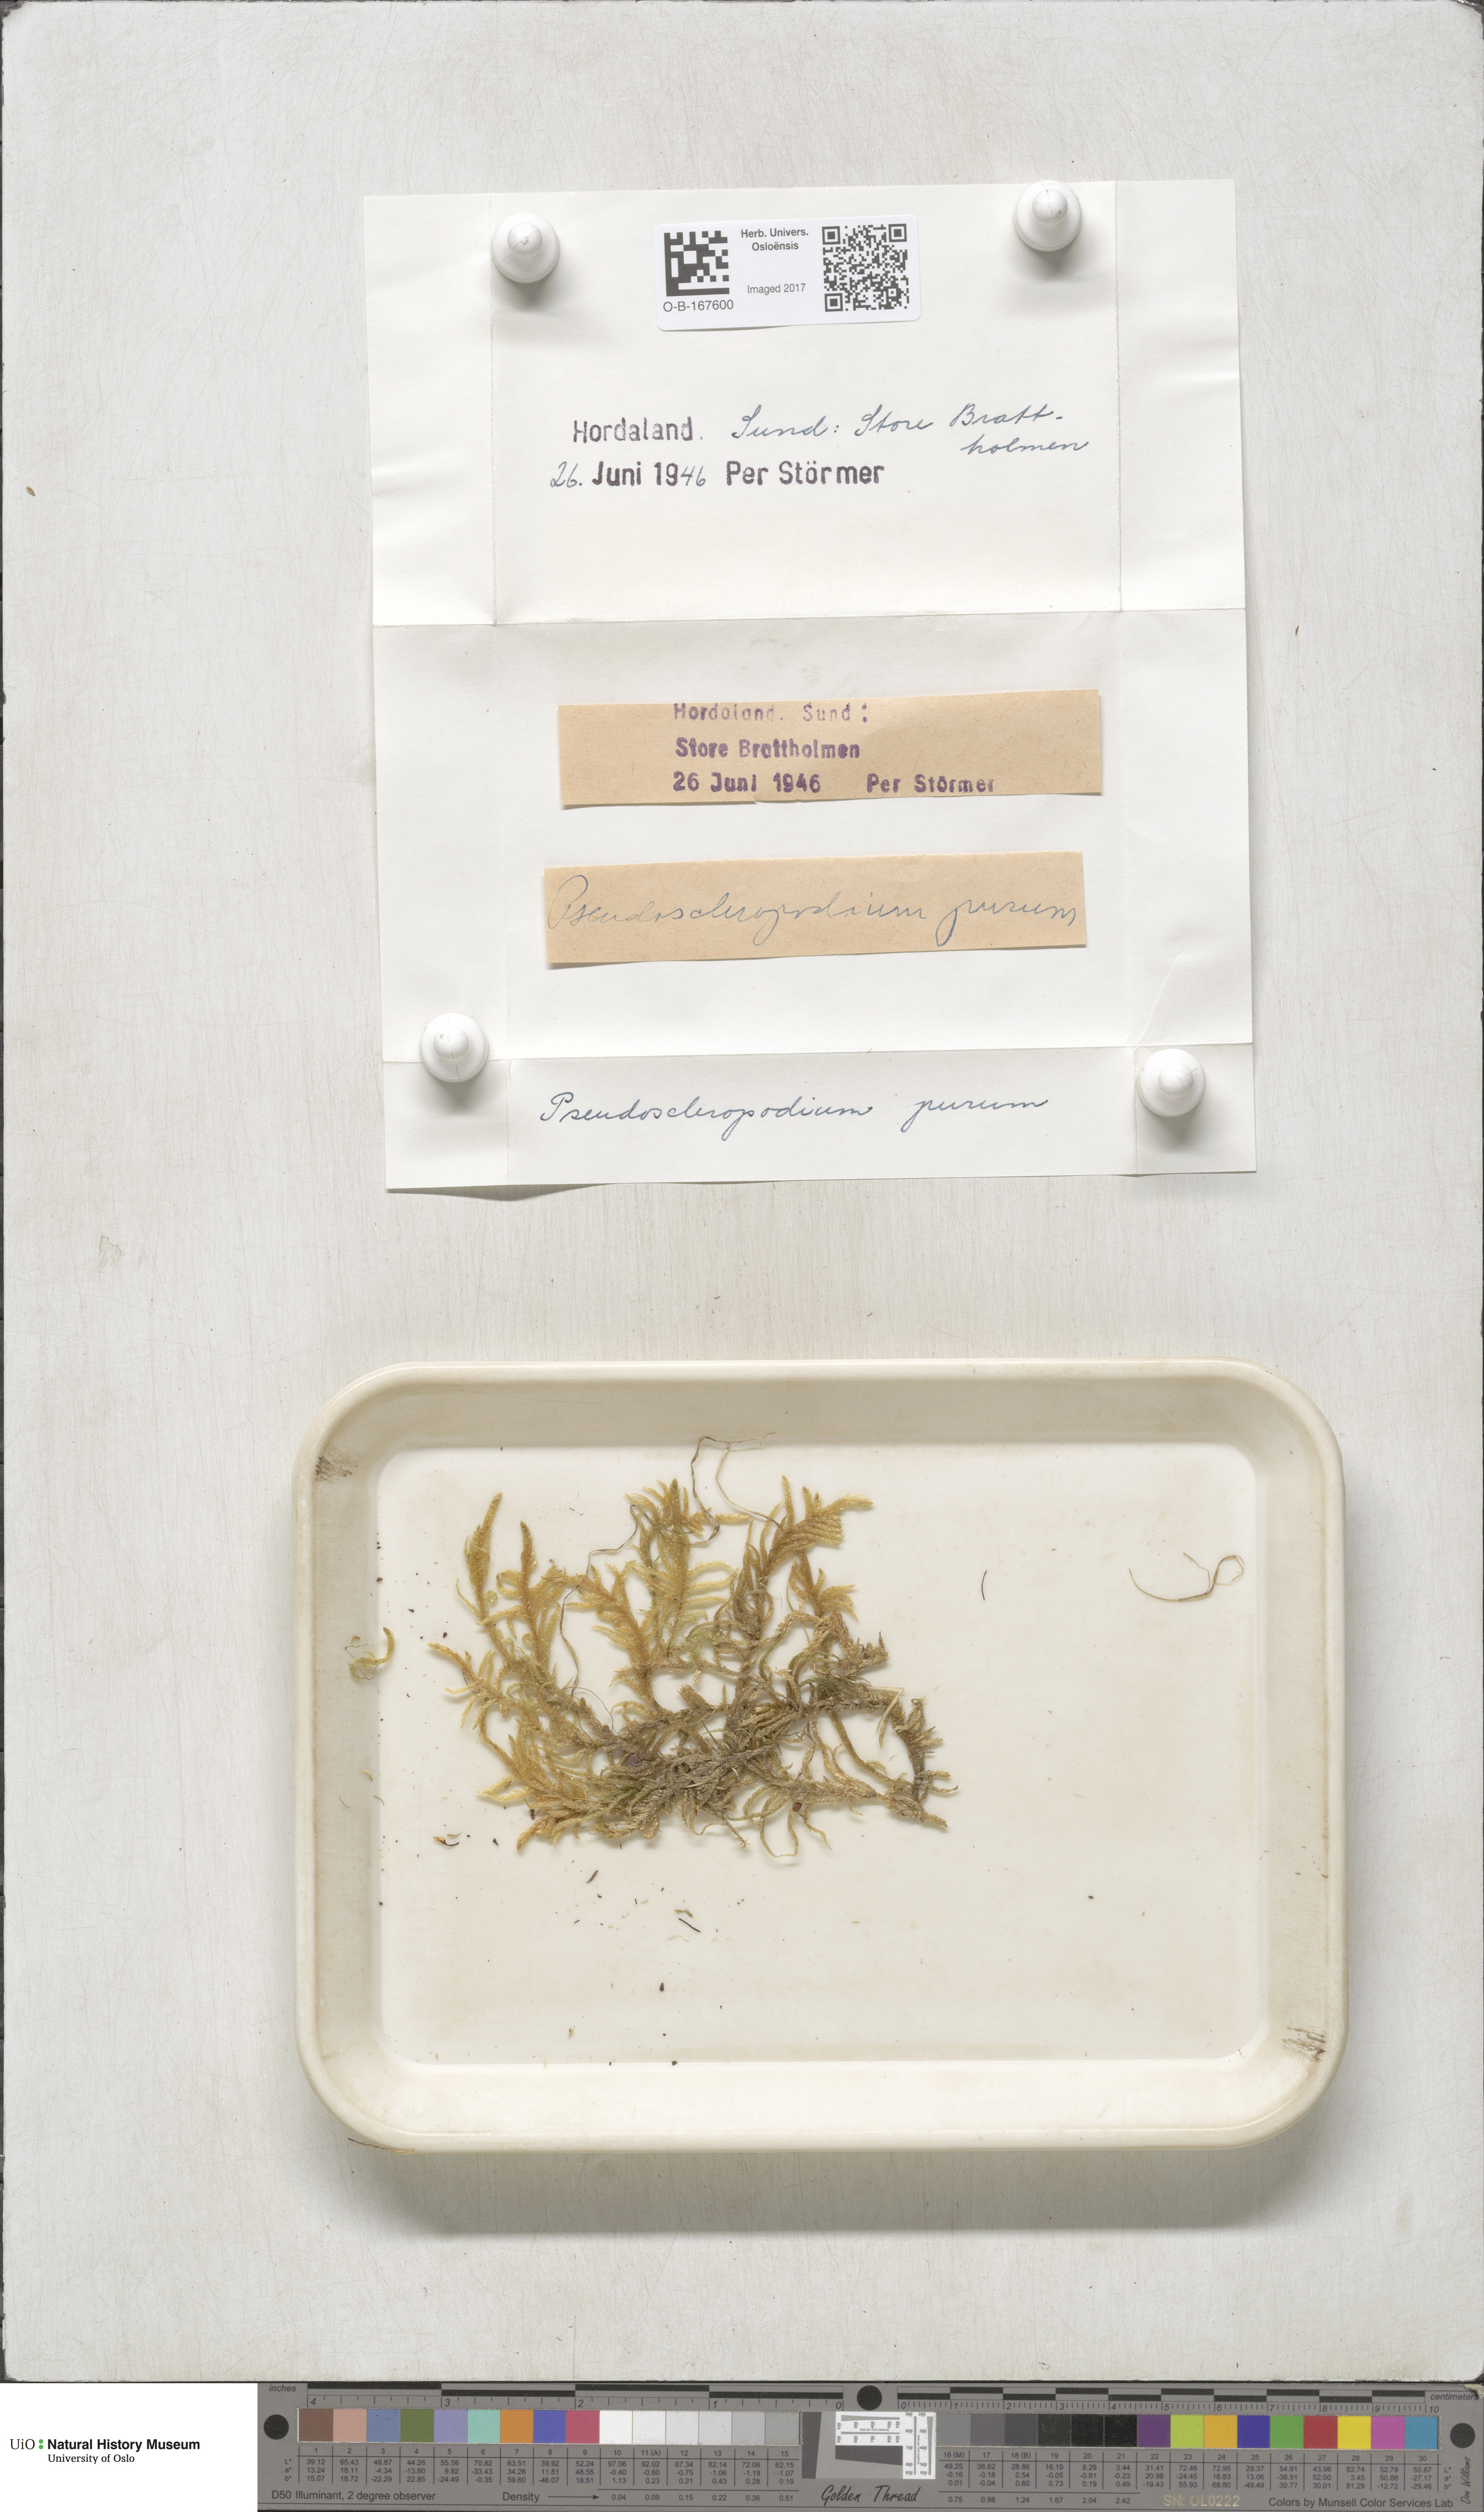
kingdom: Plantae
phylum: Bryophyta
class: Bryopsida
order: Hypnales
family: Brachytheciaceae
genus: Pseudoscleropodium
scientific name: Pseudoscleropodium purum
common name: Neat feather-moss
